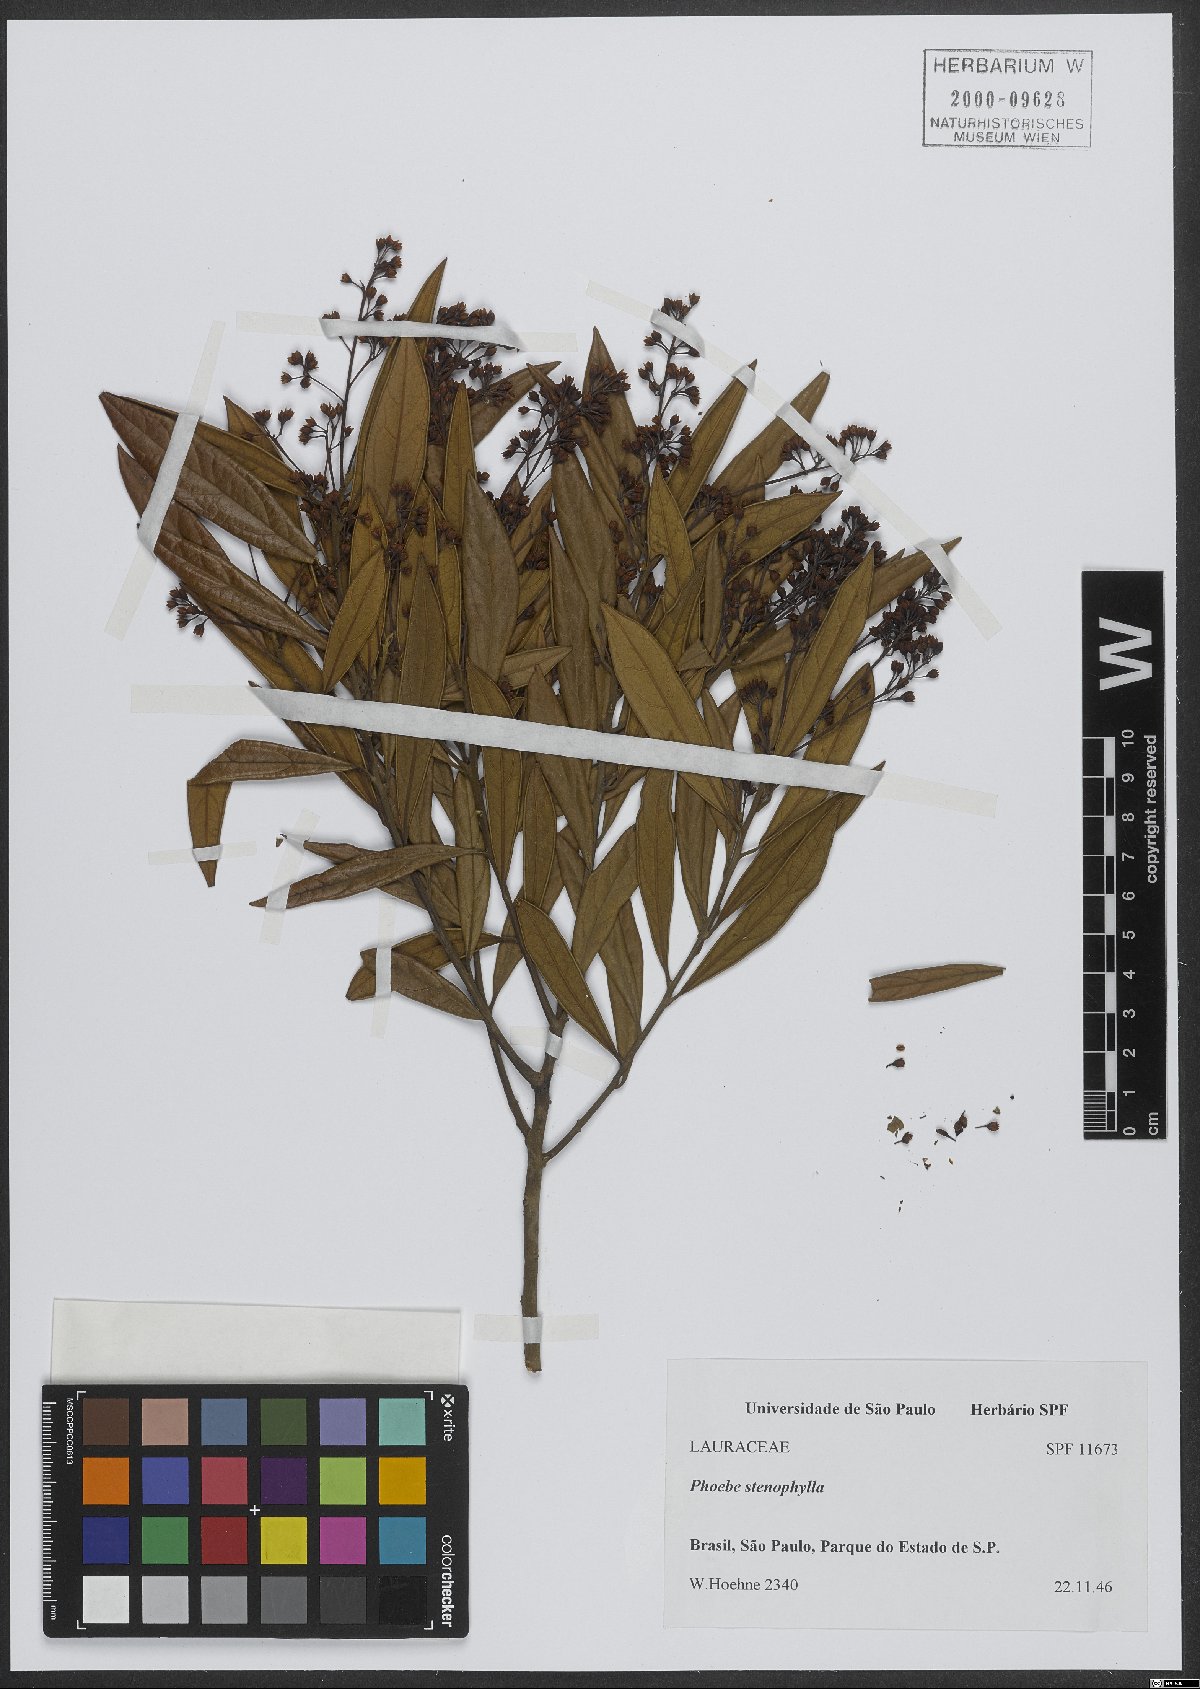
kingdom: Plantae
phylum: Tracheophyta
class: Magnoliopsida
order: Laurales
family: Lauraceae
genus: Aiouea
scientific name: Aiouea stenophylla
